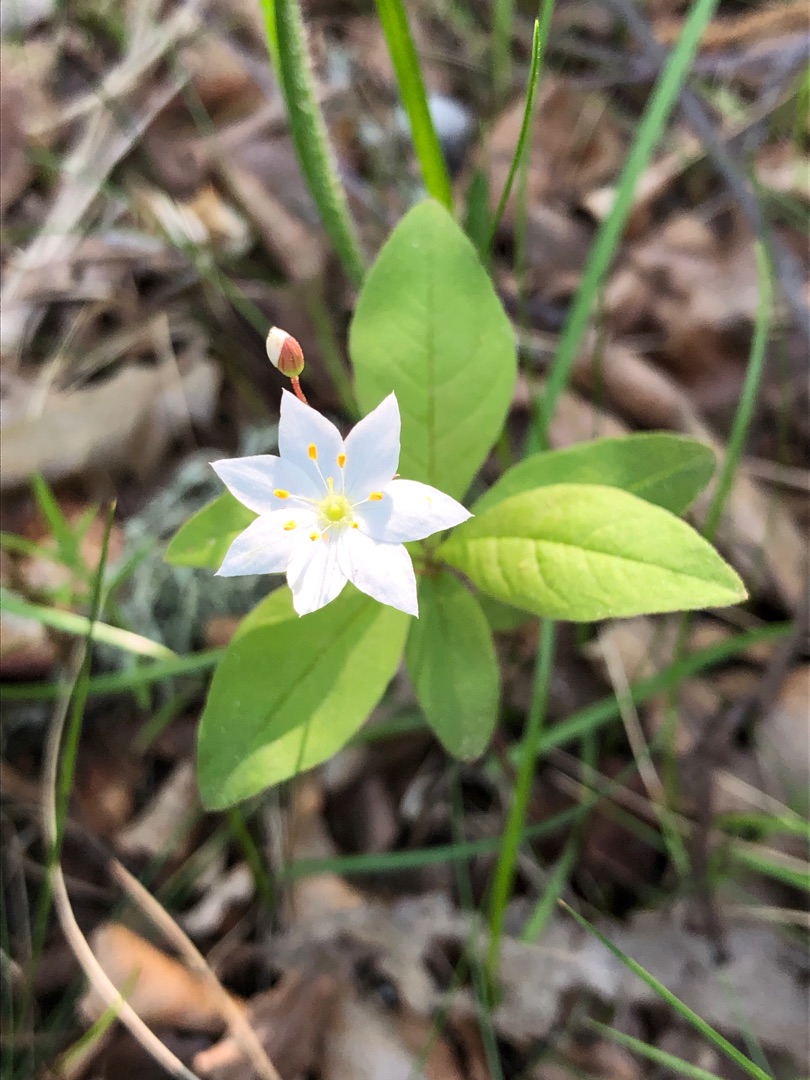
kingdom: Plantae
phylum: Tracheophyta
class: Magnoliopsida
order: Ericales
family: Primulaceae
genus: Lysimachia
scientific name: Lysimachia europaea
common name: Skovstjerne
